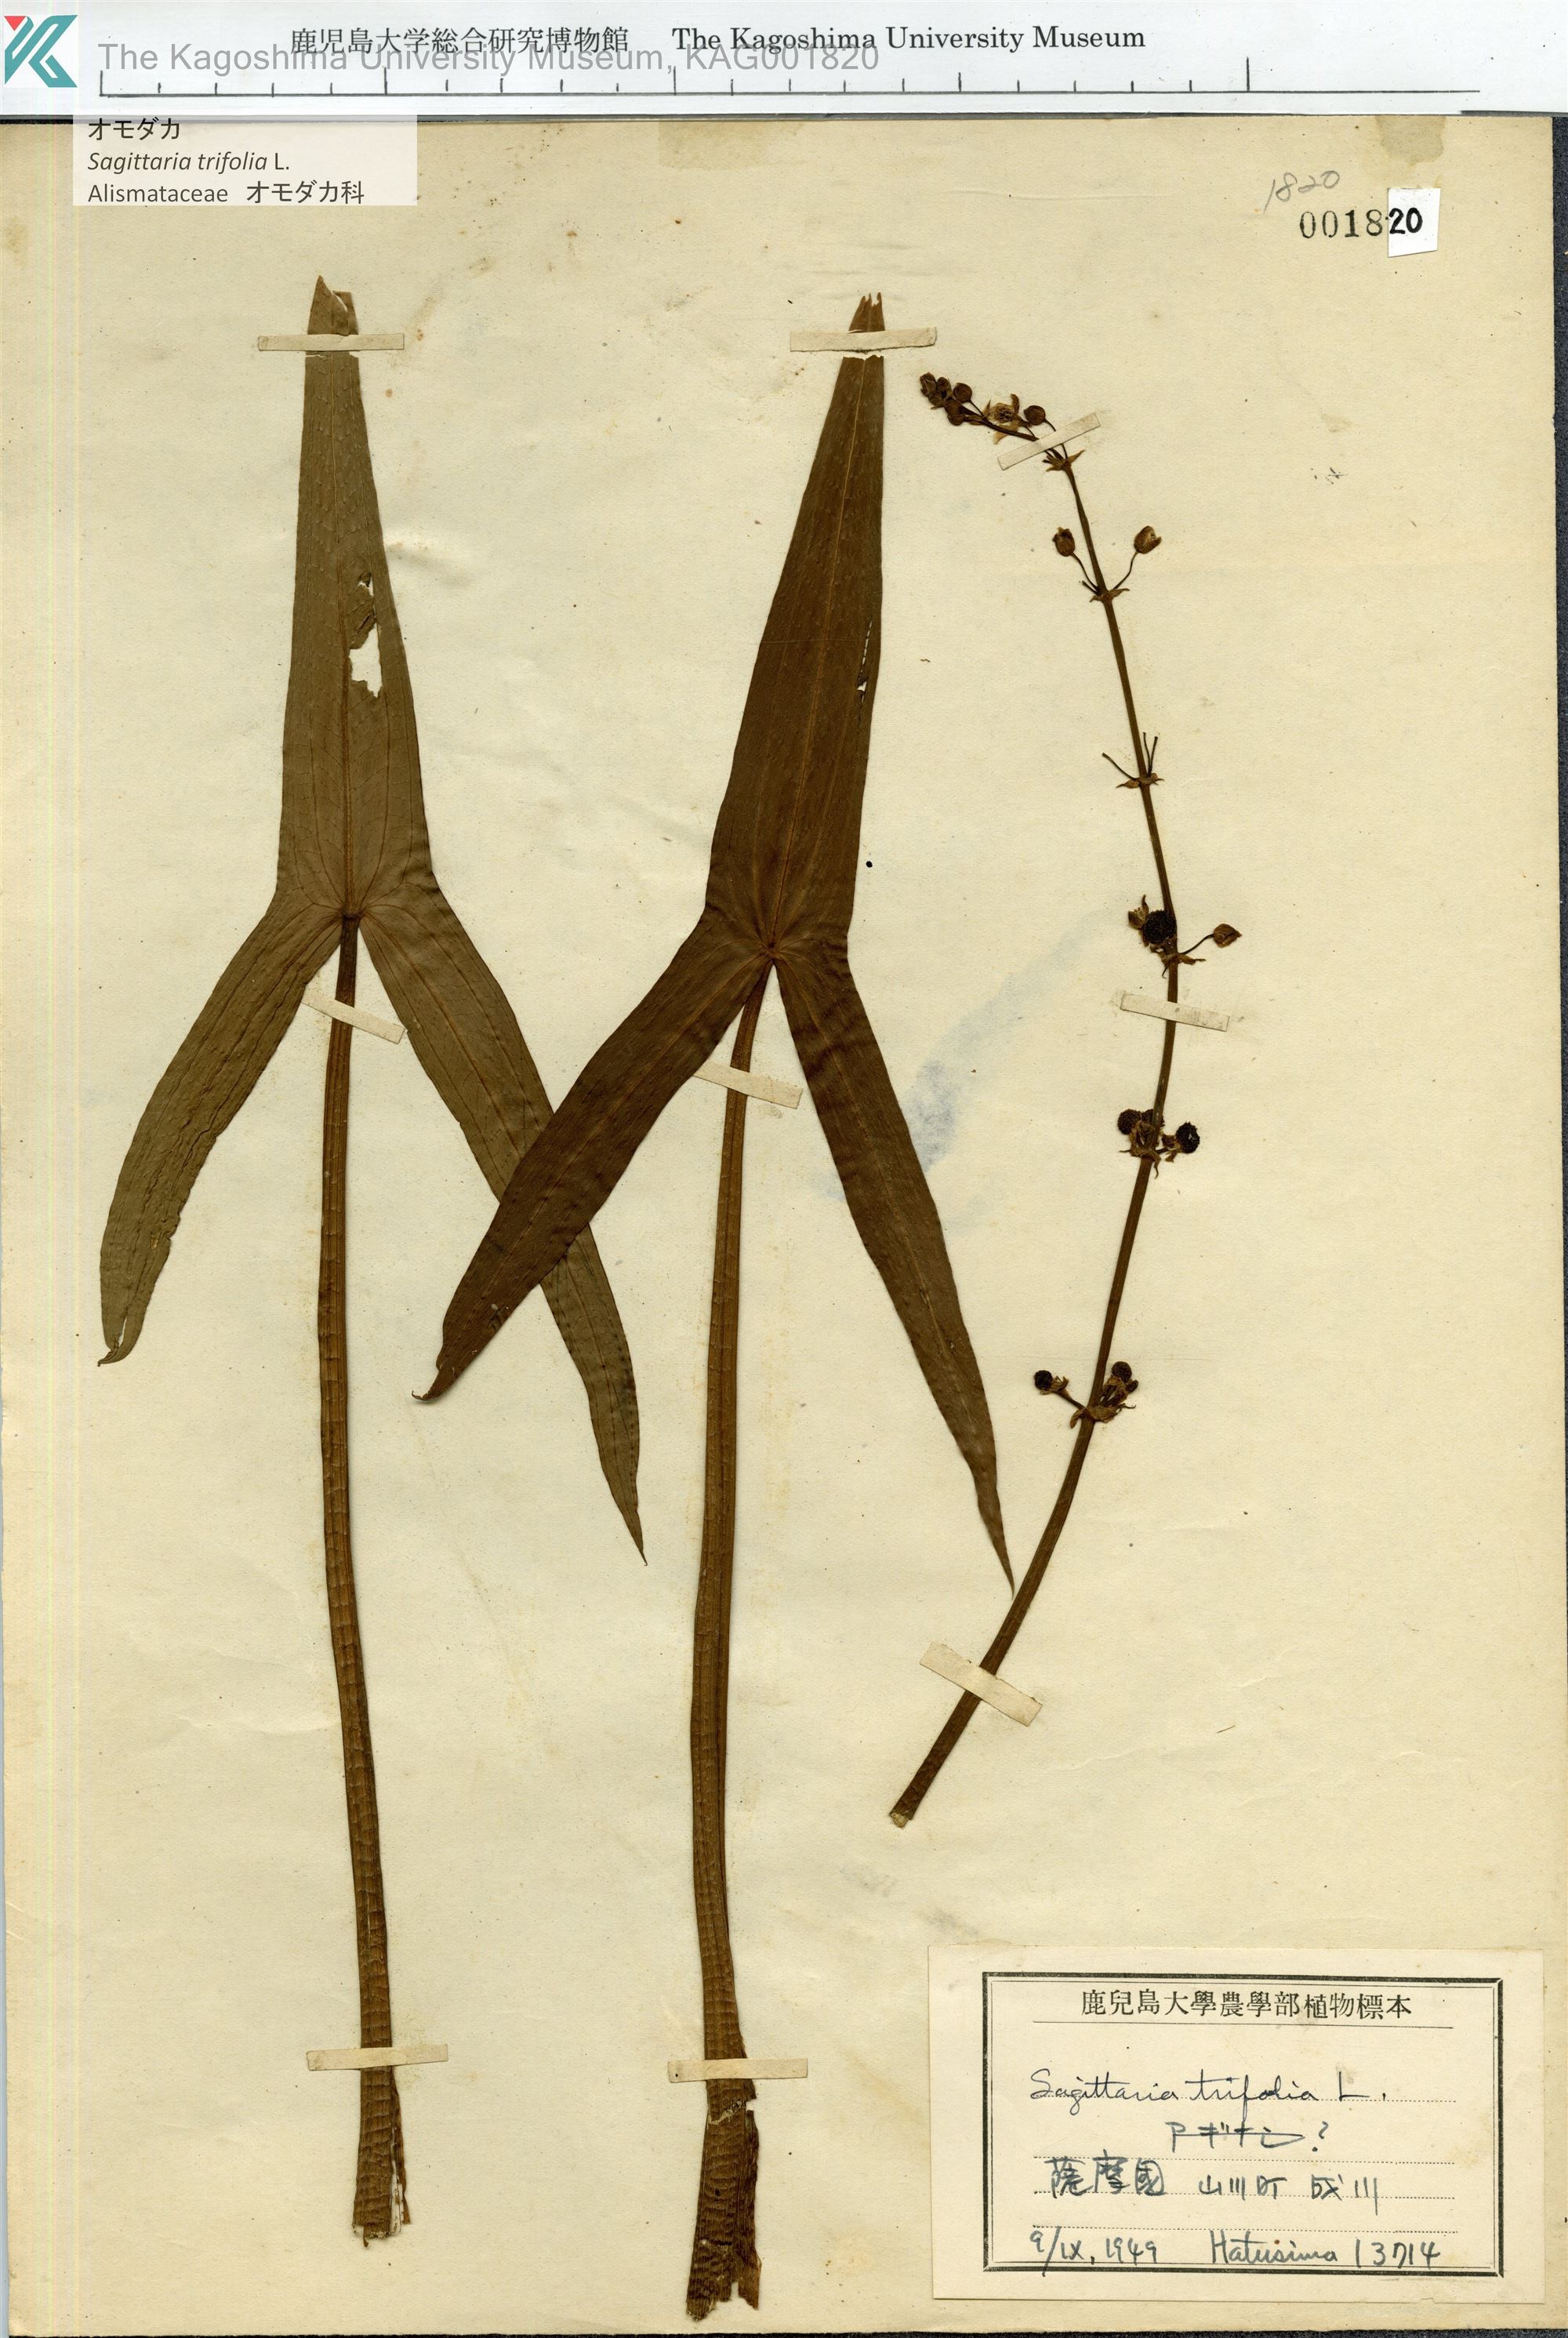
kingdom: Plantae
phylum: Tracheophyta
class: Liliopsida
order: Alismatales
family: Alismataceae
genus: Sagittaria
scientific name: Sagittaria trifolia
